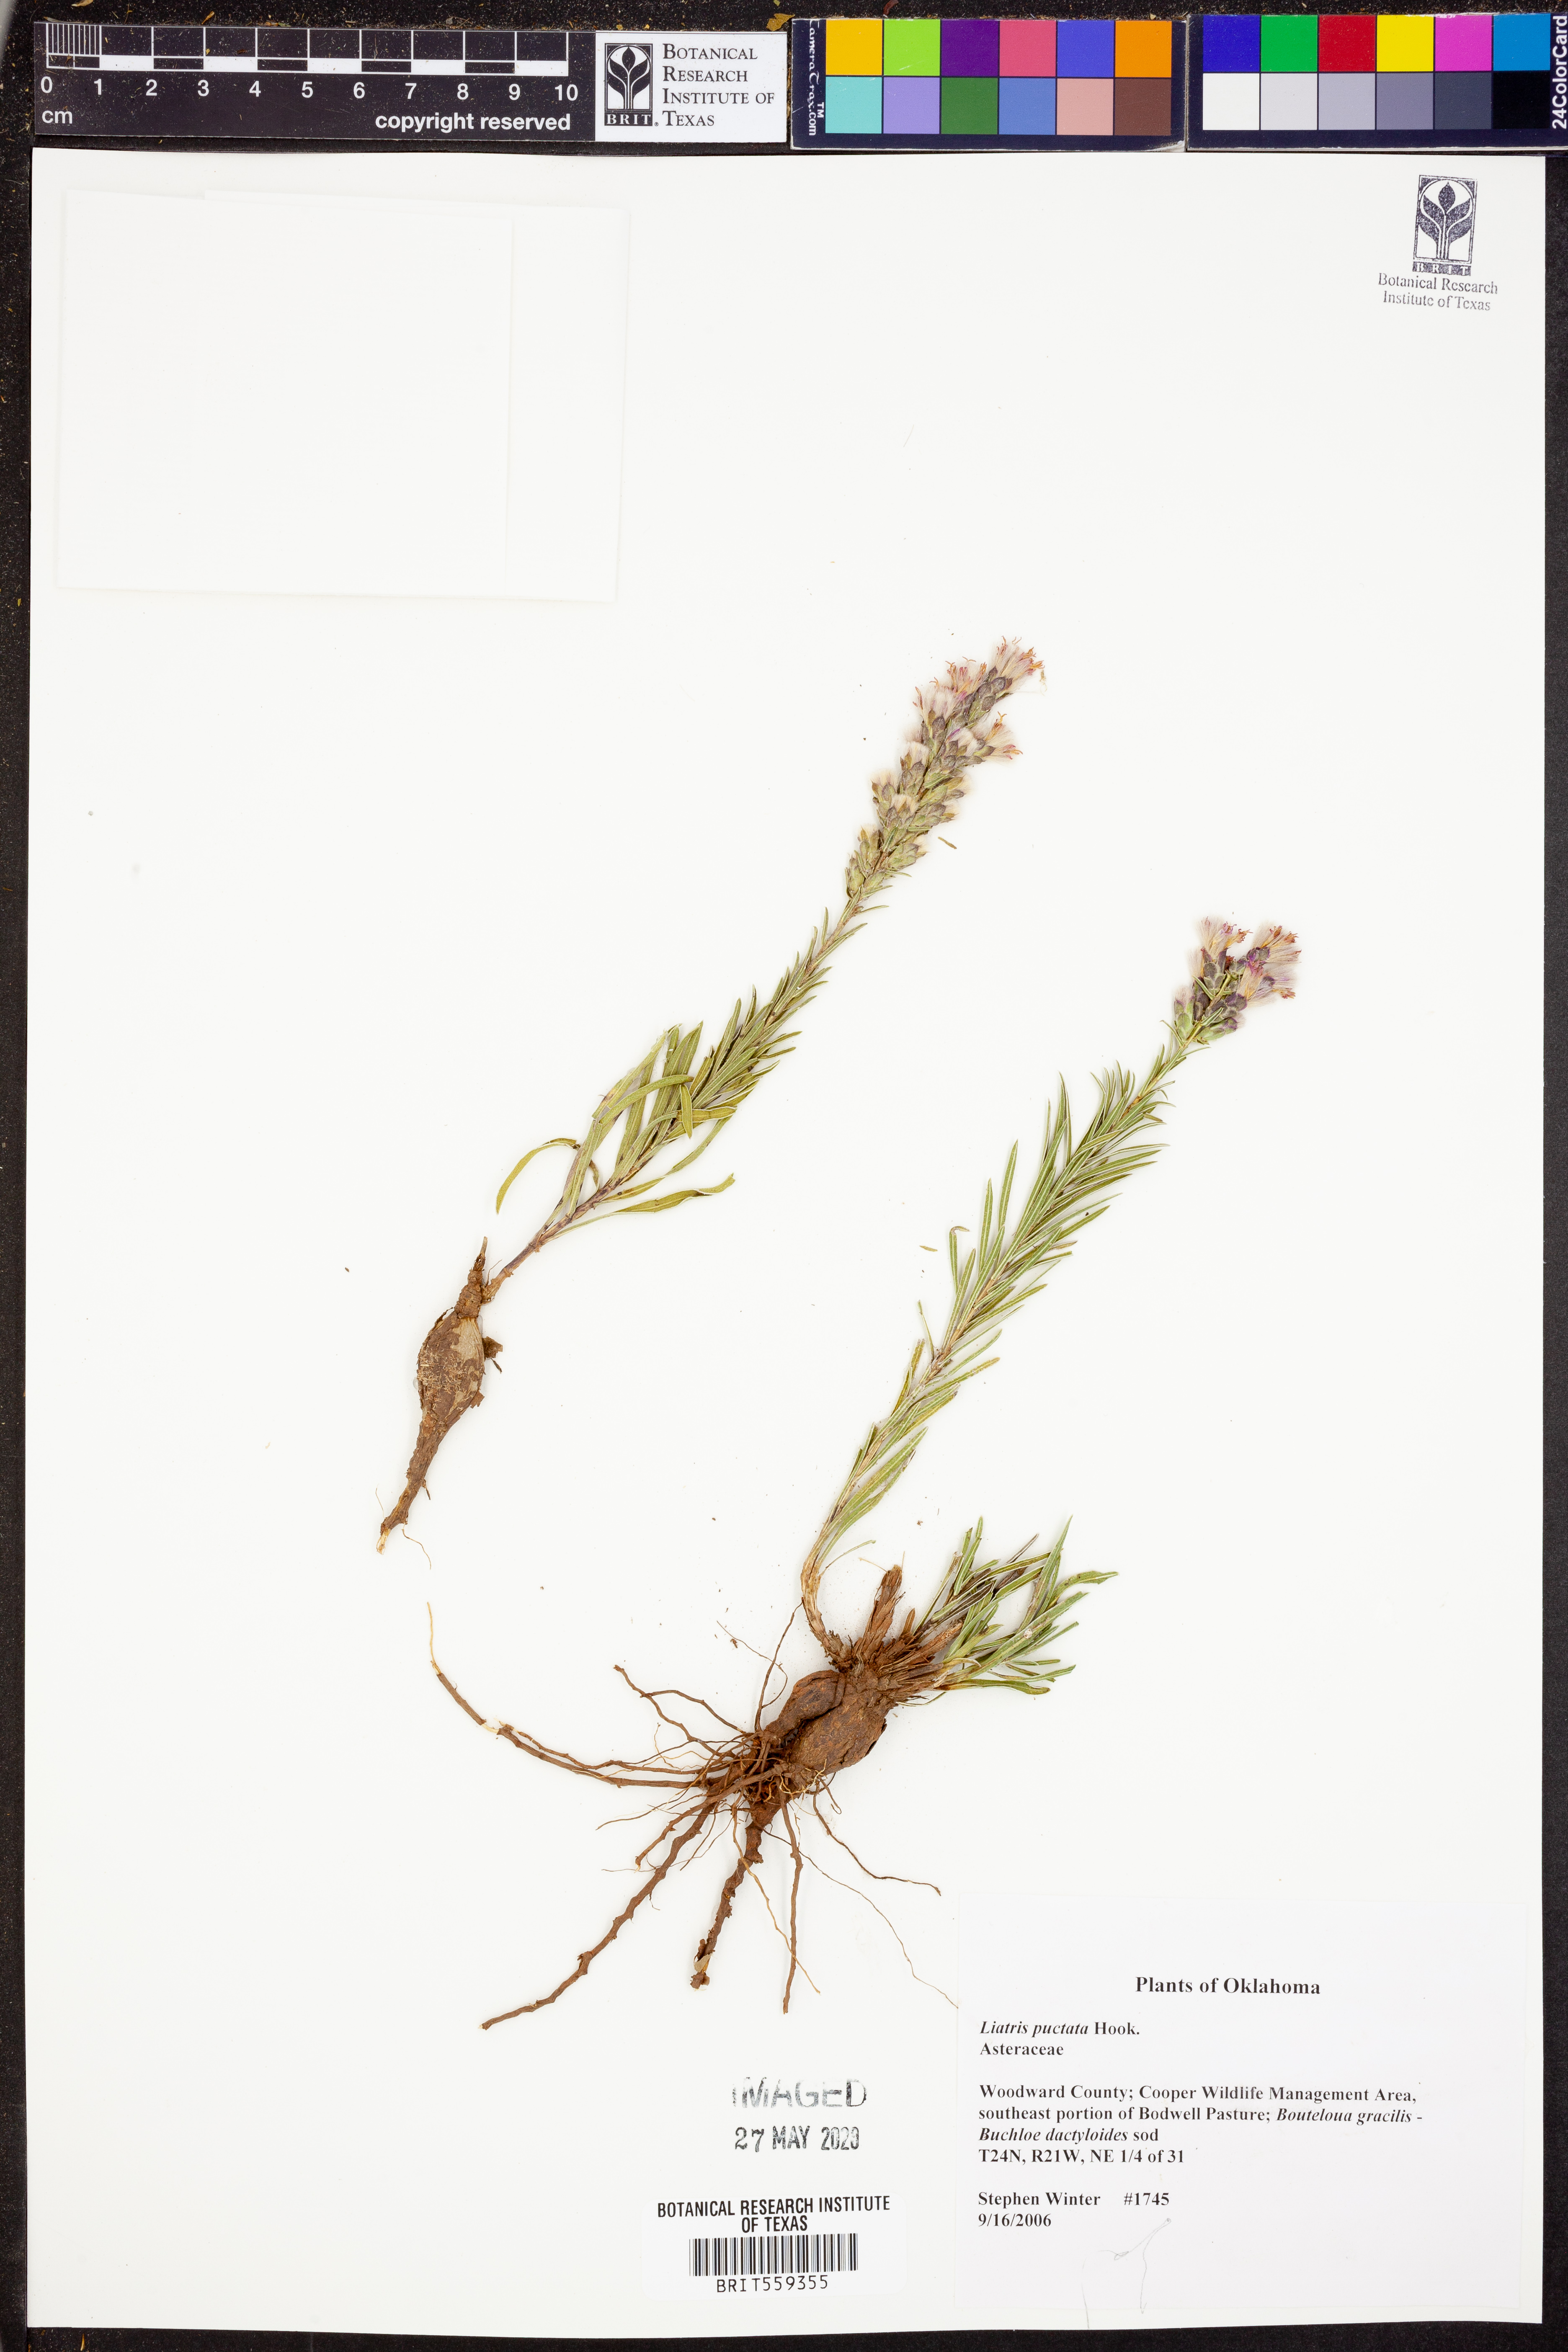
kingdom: Plantae
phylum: Tracheophyta
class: Magnoliopsida
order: Asterales
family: Asteraceae
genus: Liatris
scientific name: Liatris punctata
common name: Dotted gayfeather
